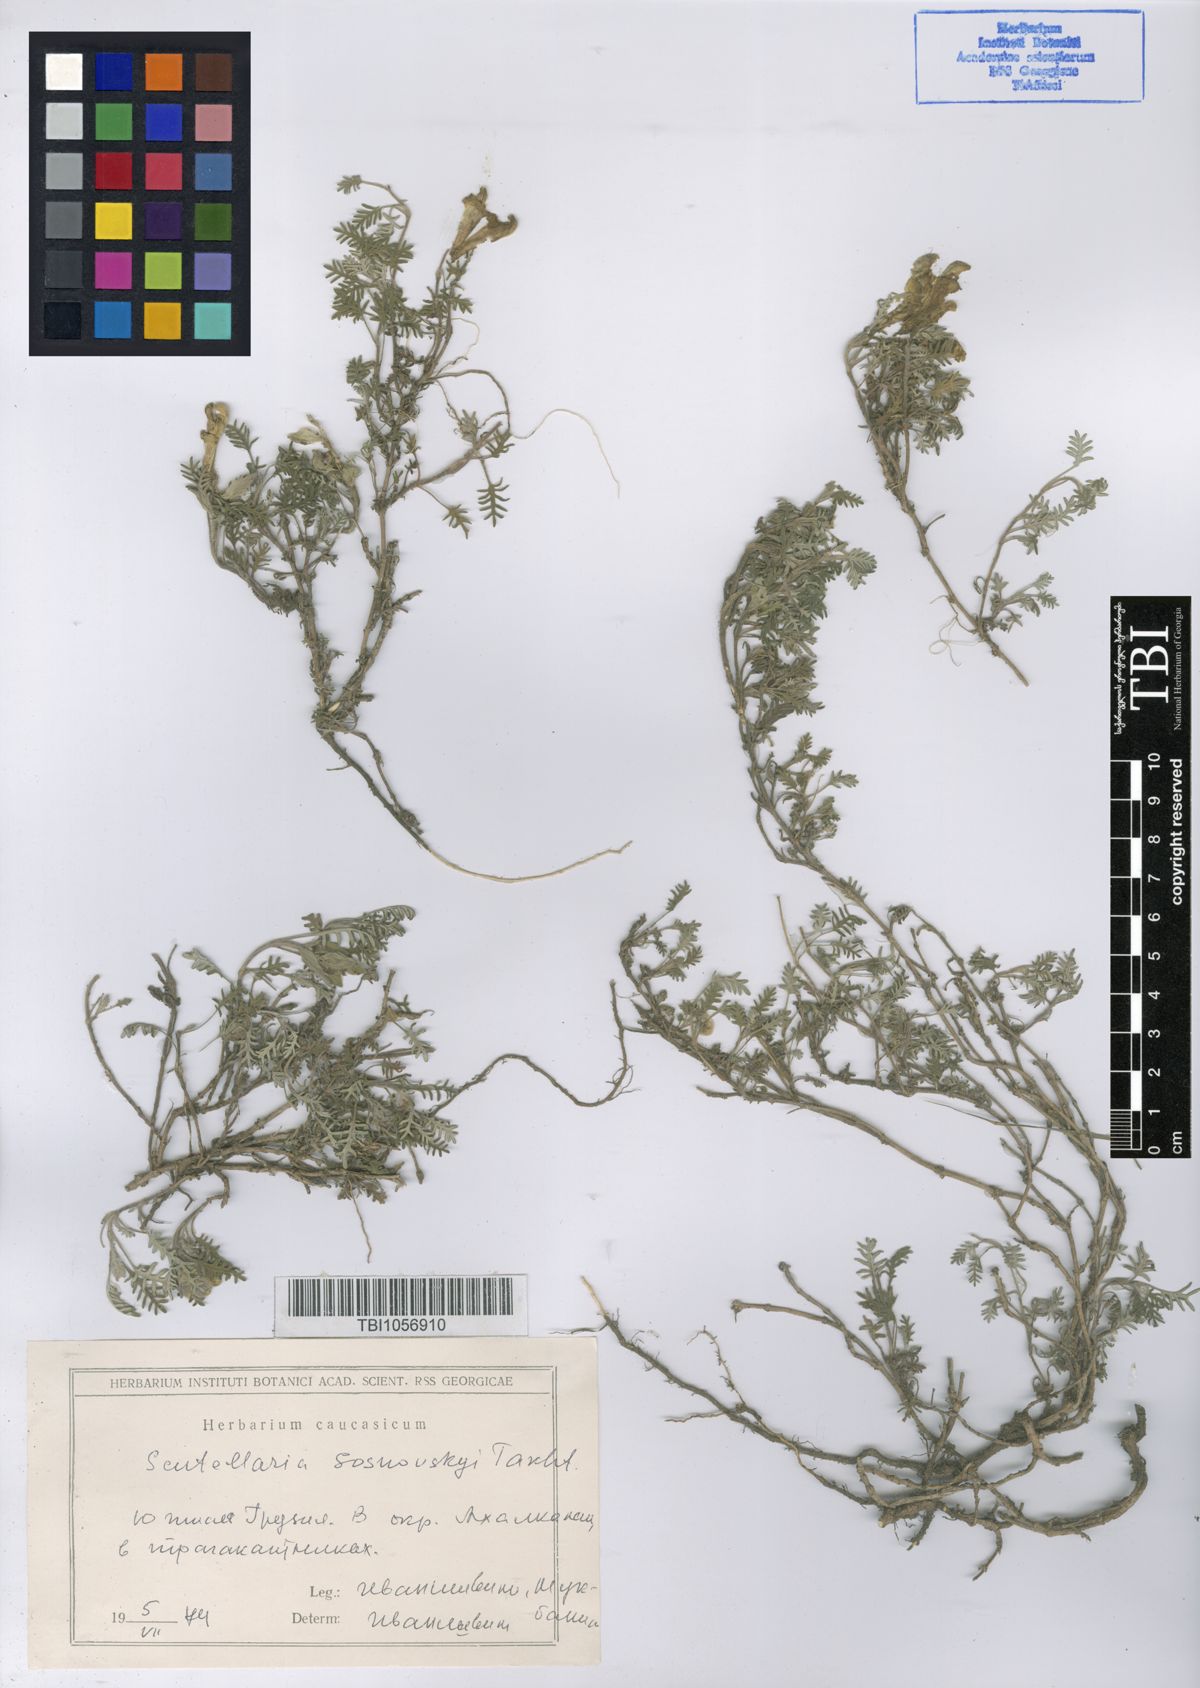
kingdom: Plantae
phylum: Tracheophyta
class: Magnoliopsida
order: Lamiales
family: Lamiaceae
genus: Scutellaria
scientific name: Scutellaria sosnowskyi
